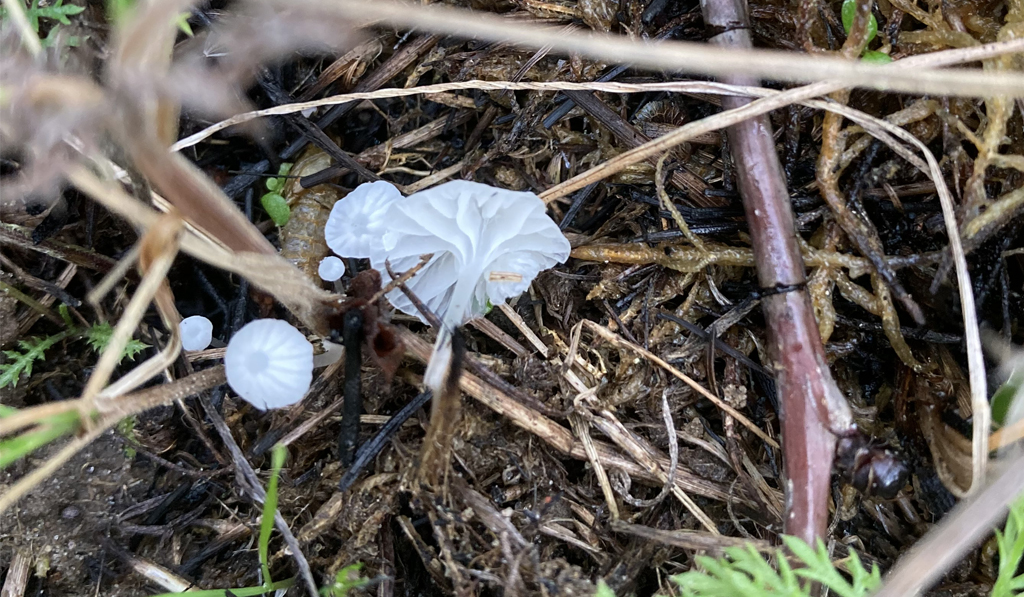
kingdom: Fungi
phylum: Basidiomycota
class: Agaricomycetes
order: Agaricales
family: Mycenaceae
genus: Atheniella
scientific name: Atheniella delectabilis
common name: nitrøs huesvamp
